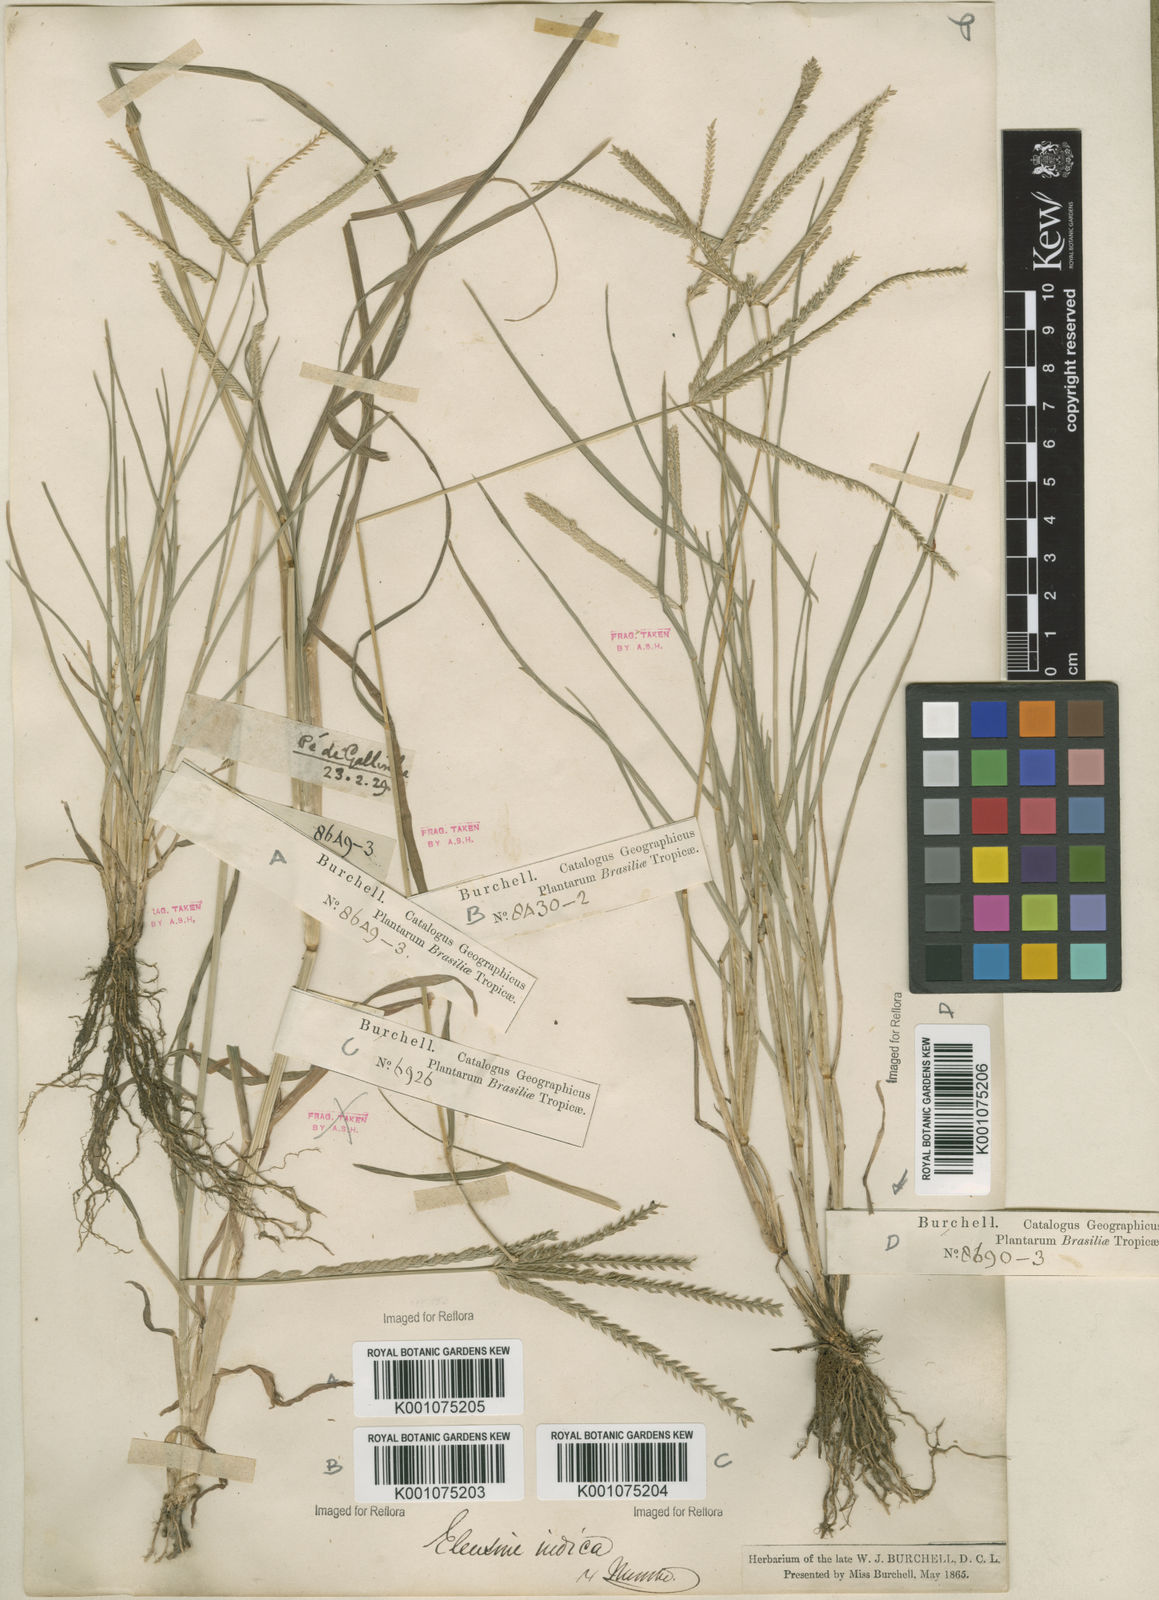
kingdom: Plantae
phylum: Tracheophyta
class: Liliopsida
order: Poales
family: Poaceae
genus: Eleusine
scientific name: Eleusine indica
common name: Yard-grass
